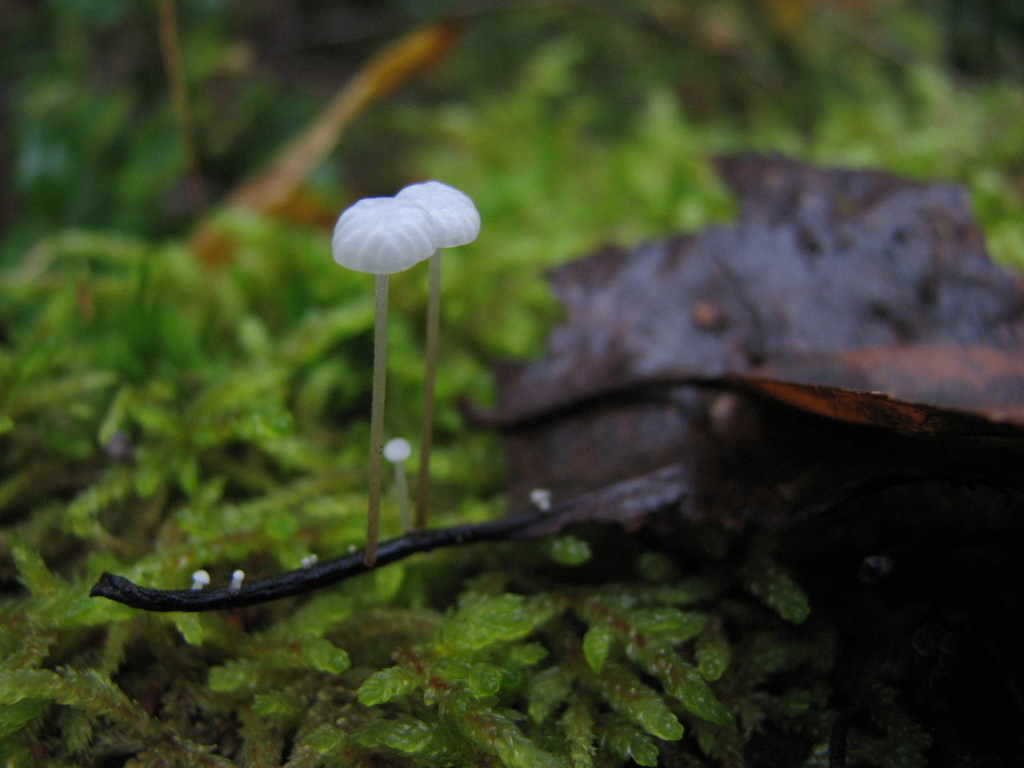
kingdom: Fungi
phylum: Basidiomycota
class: Agaricomycetes
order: Agaricales
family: Marasmiaceae
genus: Marasmius
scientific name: Marasmius
